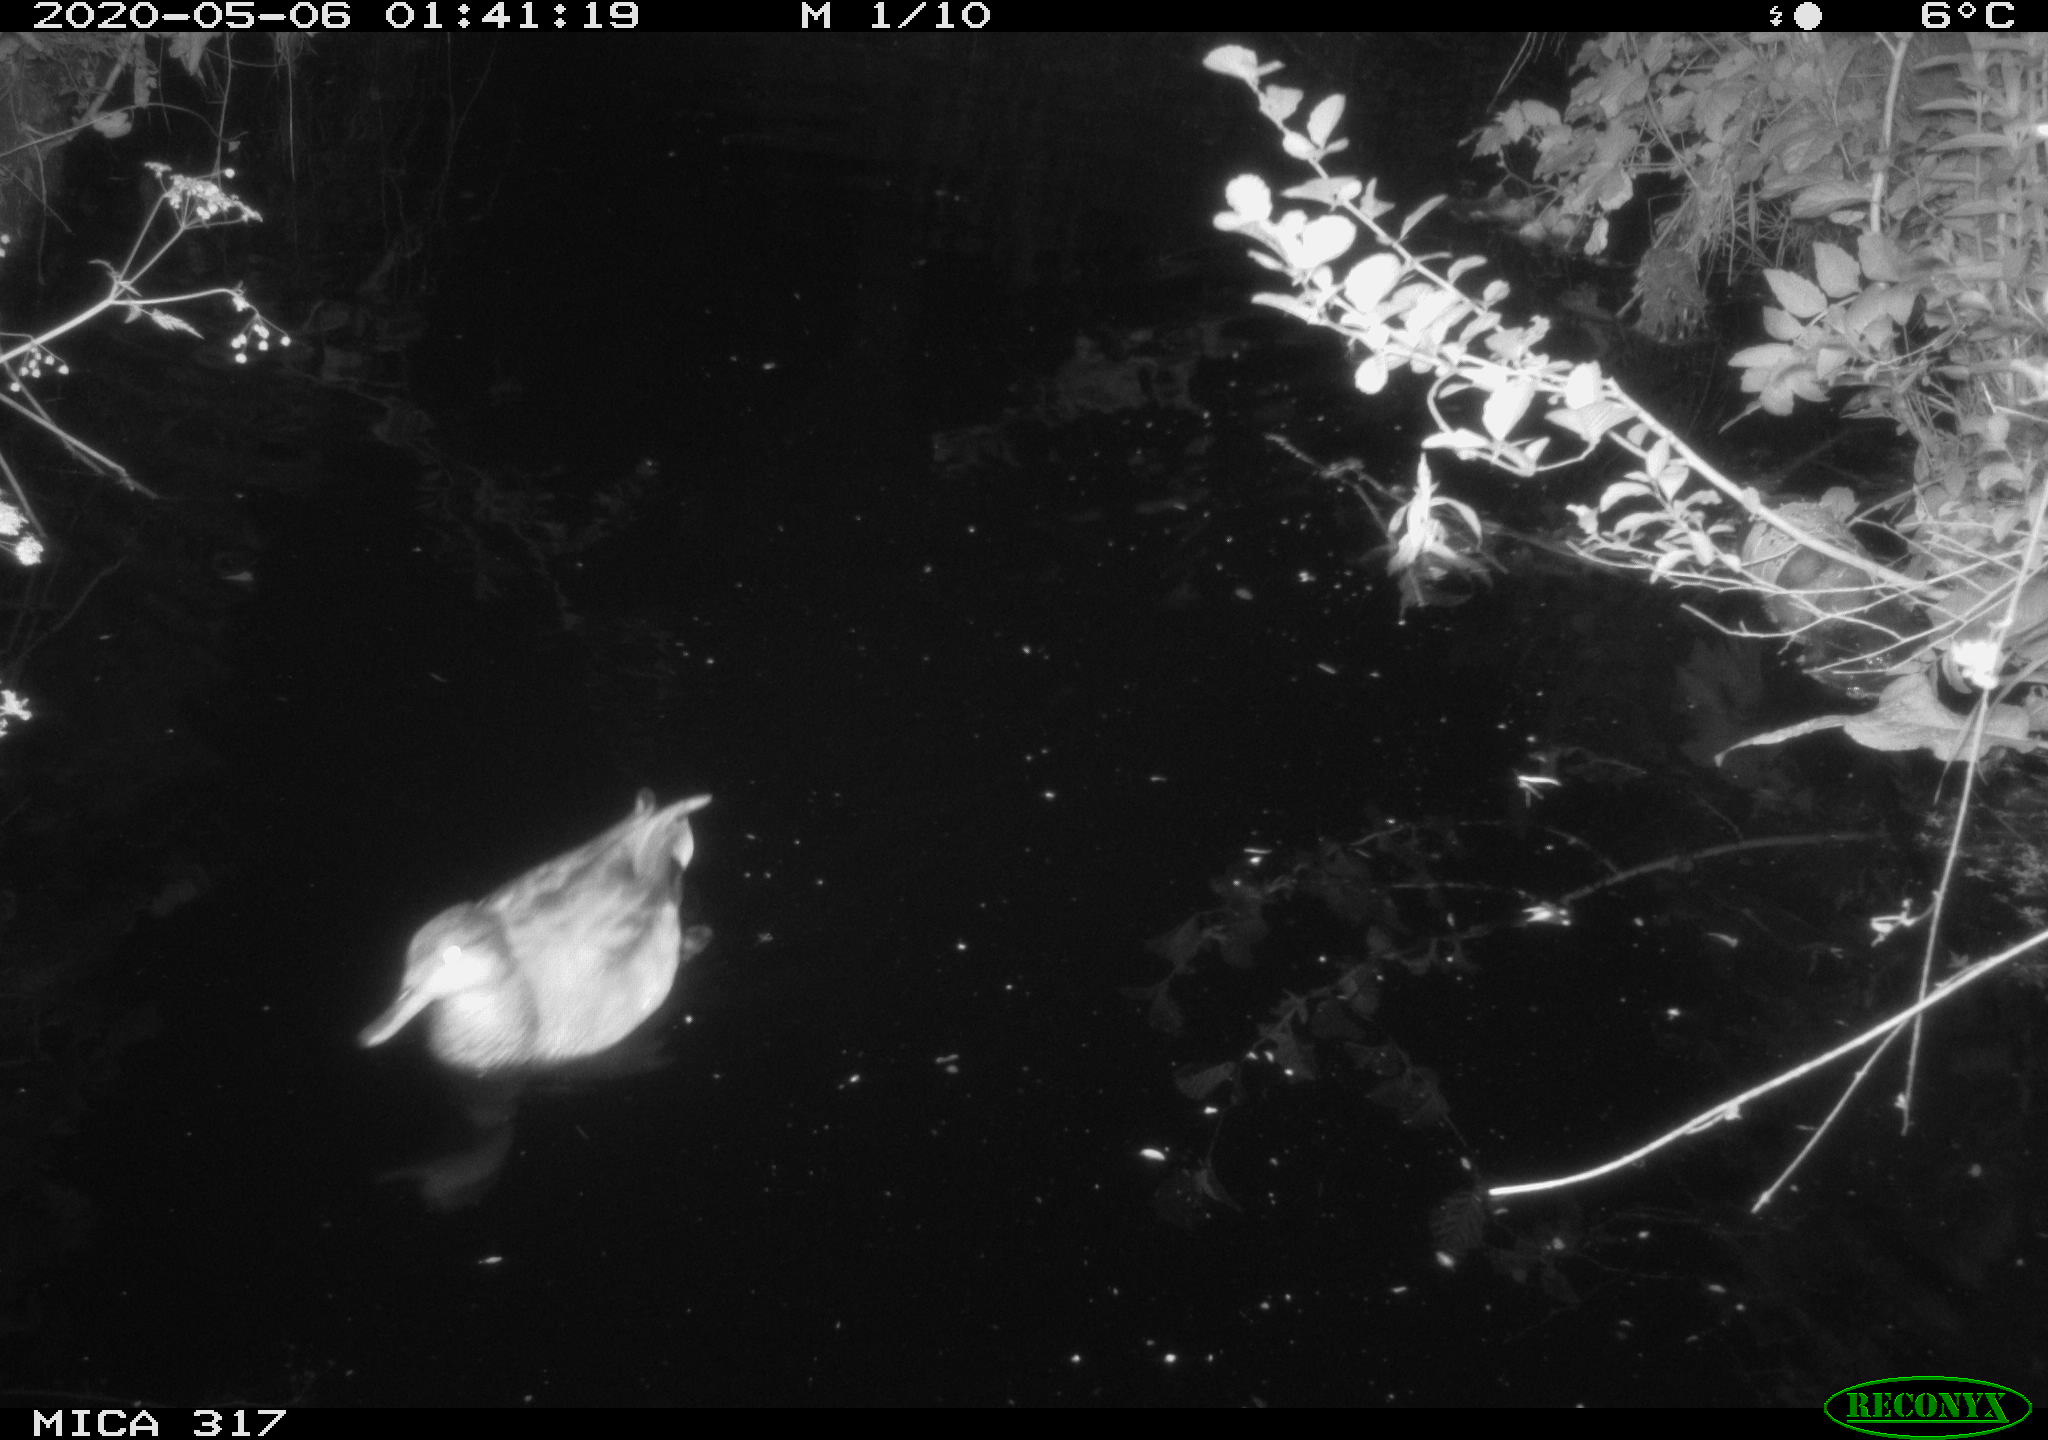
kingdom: Animalia
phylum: Chordata
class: Aves
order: Anseriformes
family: Anatidae
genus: Anas
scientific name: Anas platyrhynchos
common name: Mallard
